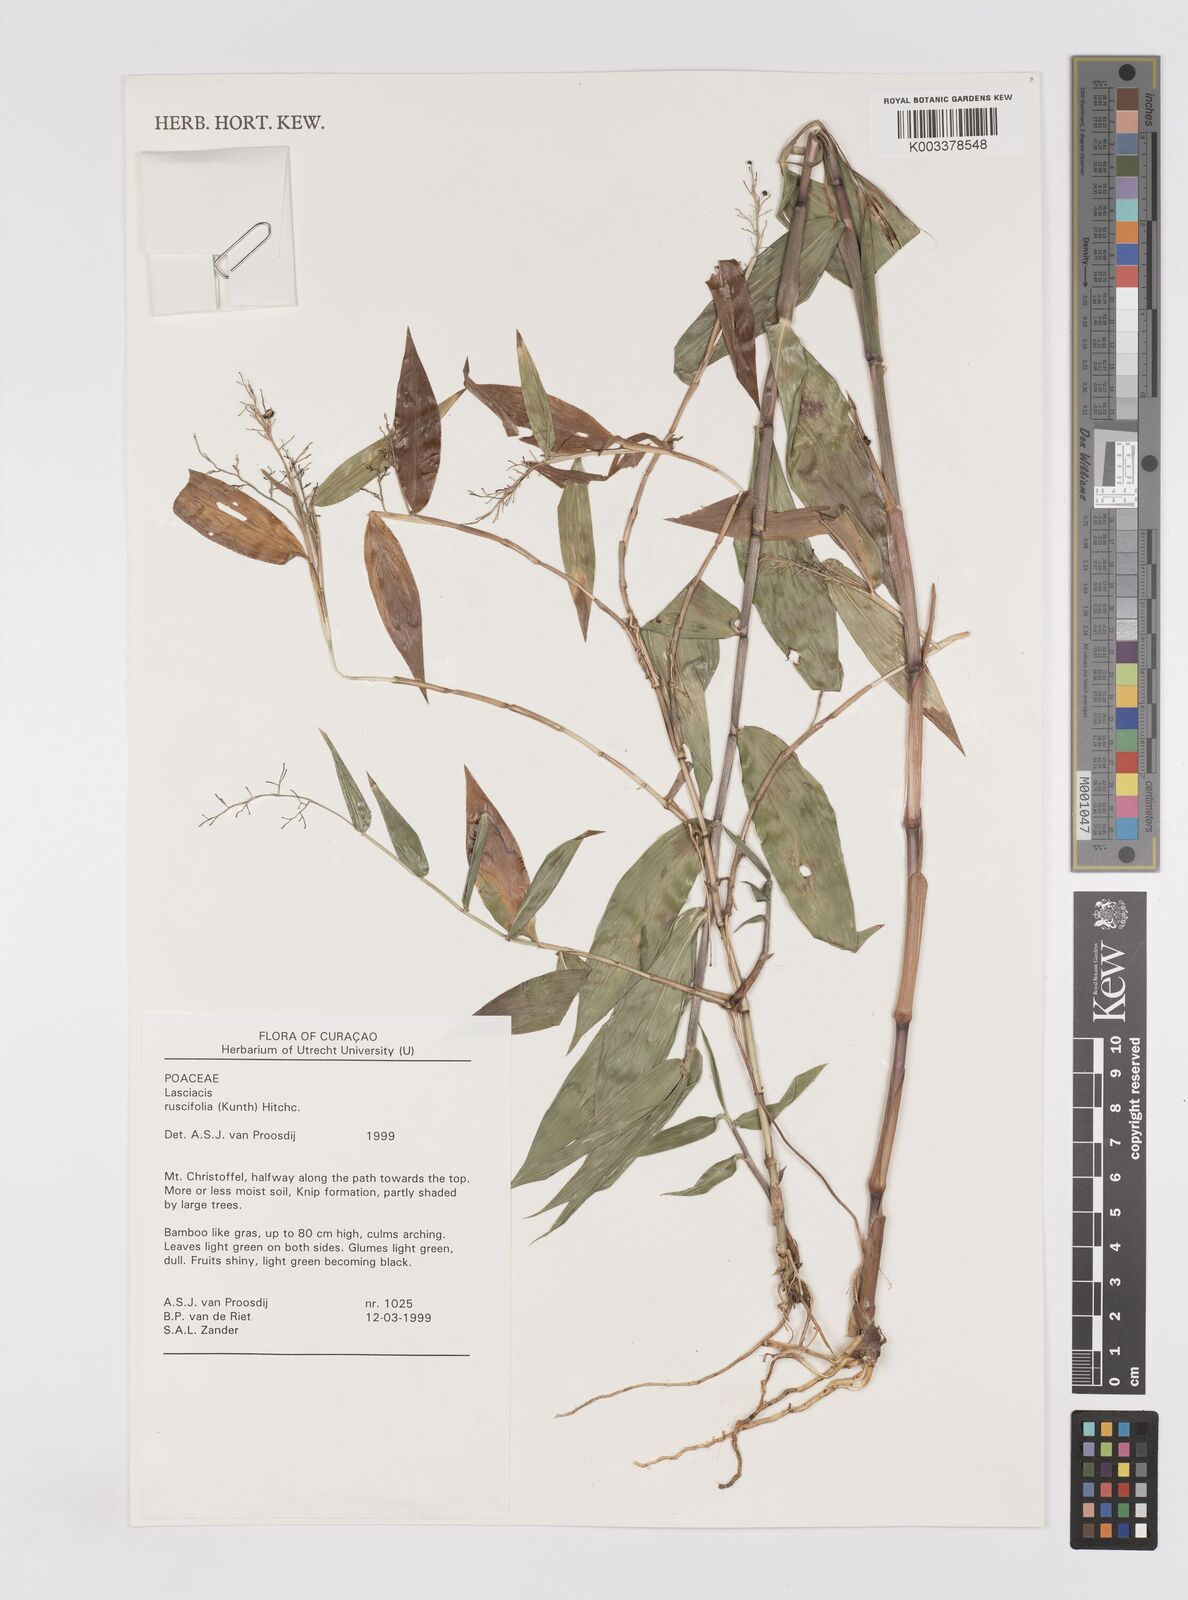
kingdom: Plantae
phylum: Tracheophyta
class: Liliopsida
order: Poales
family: Poaceae
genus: Lasiacis
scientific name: Lasiacis ruscifolia
